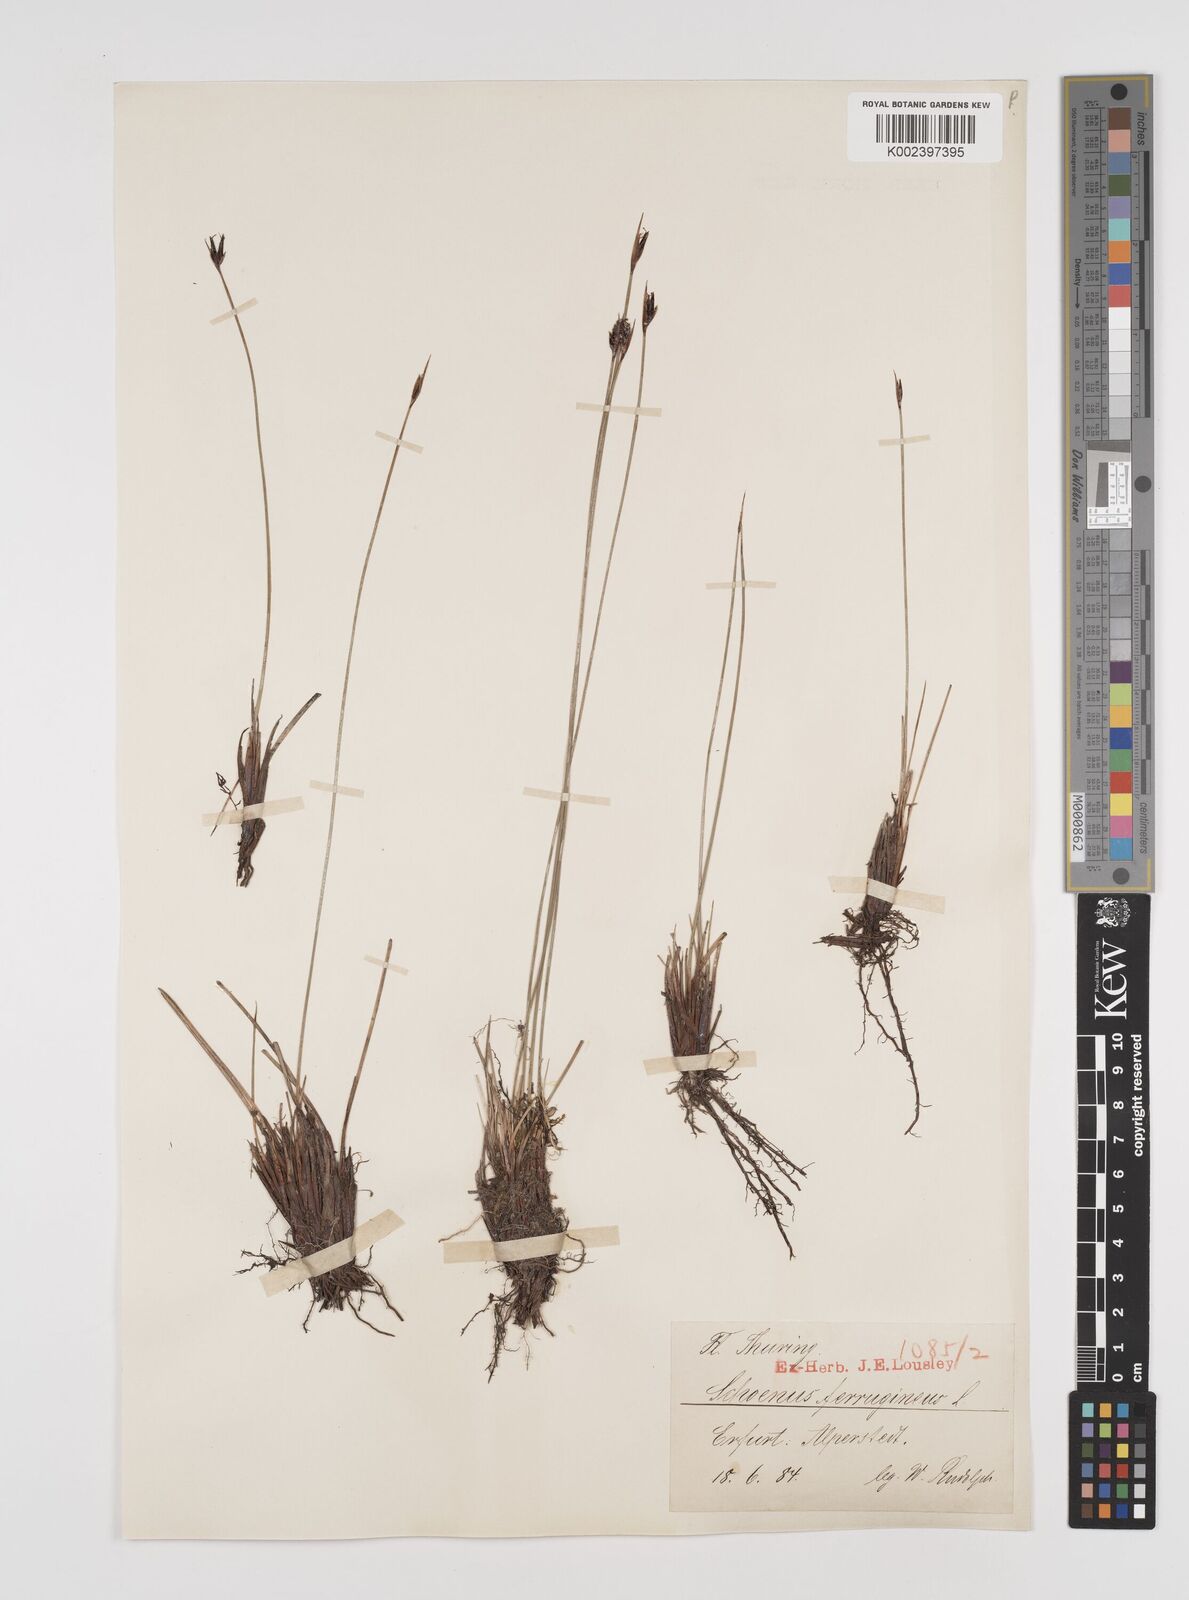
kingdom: Plantae
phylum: Tracheophyta
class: Liliopsida
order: Poales
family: Cyperaceae
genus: Schoenus
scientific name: Schoenus ferrugineus
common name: Brown bog-rush
